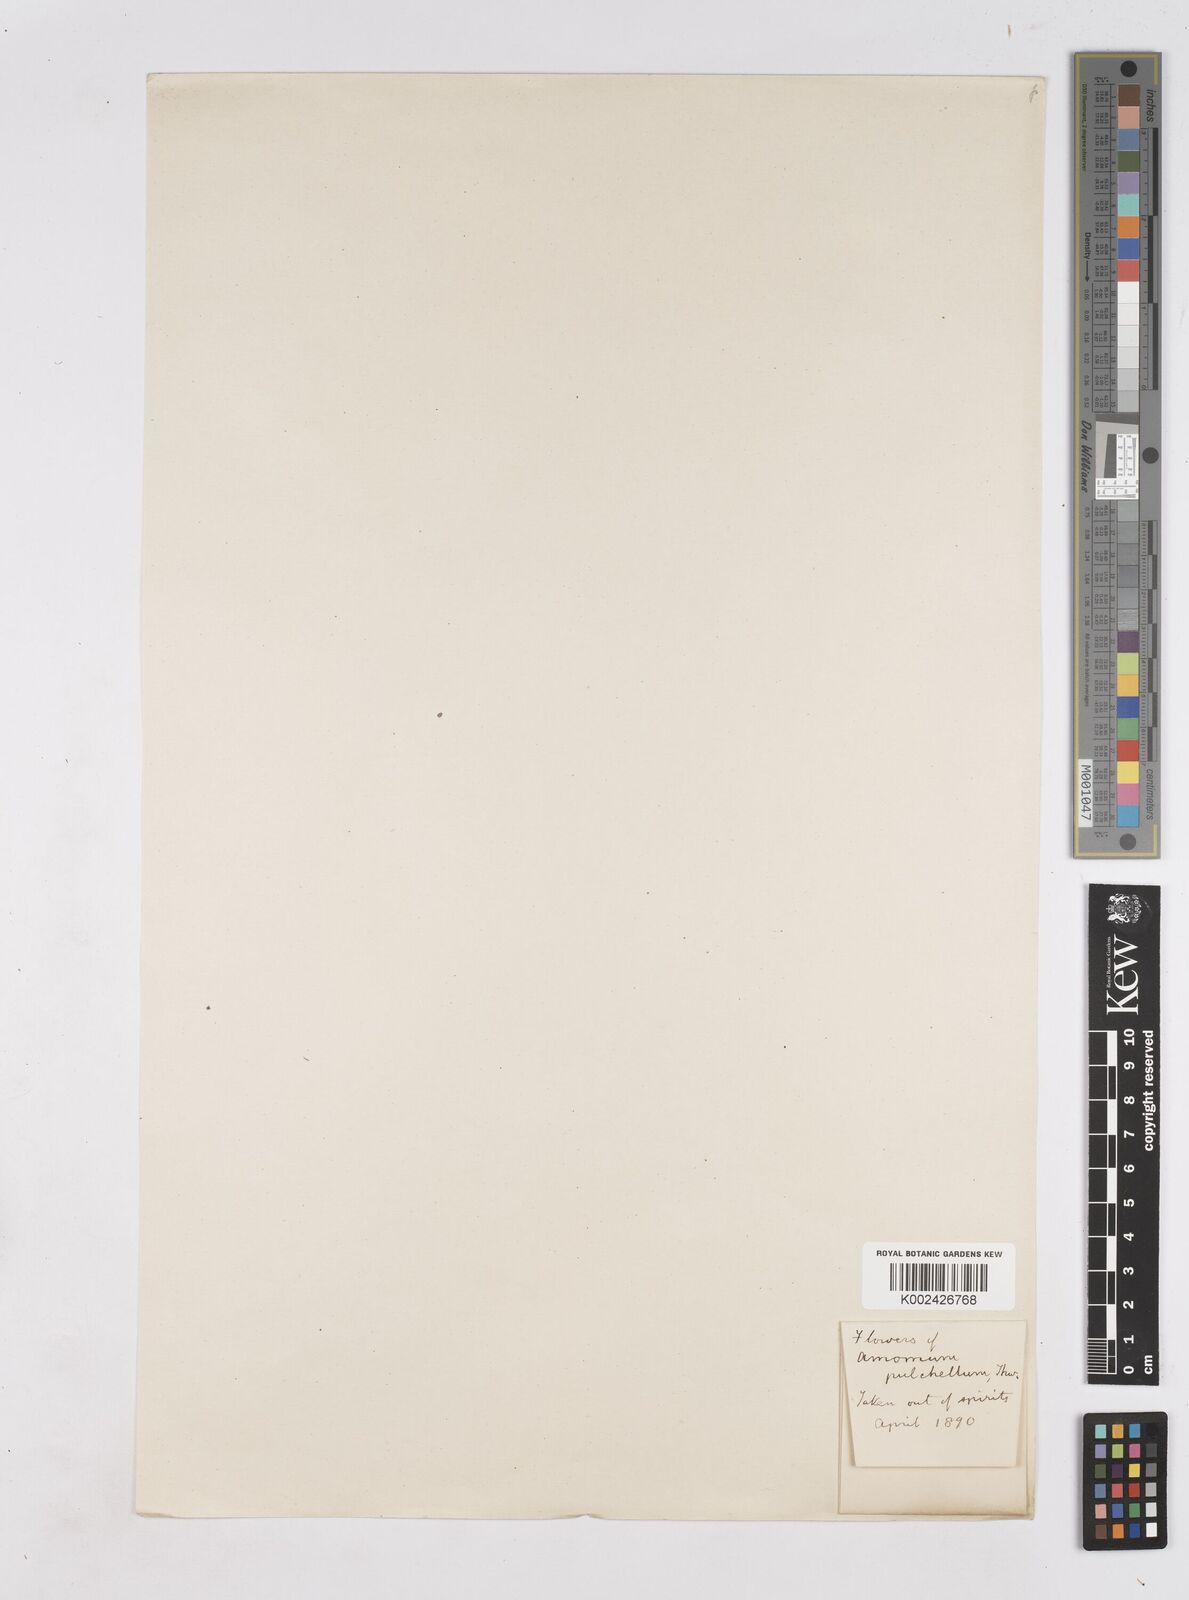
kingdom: Plantae
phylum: Tracheophyta
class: Liliopsida
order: Zingiberales
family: Zingiberaceae
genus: Cyphostigma
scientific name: Cyphostigma pulchellum
